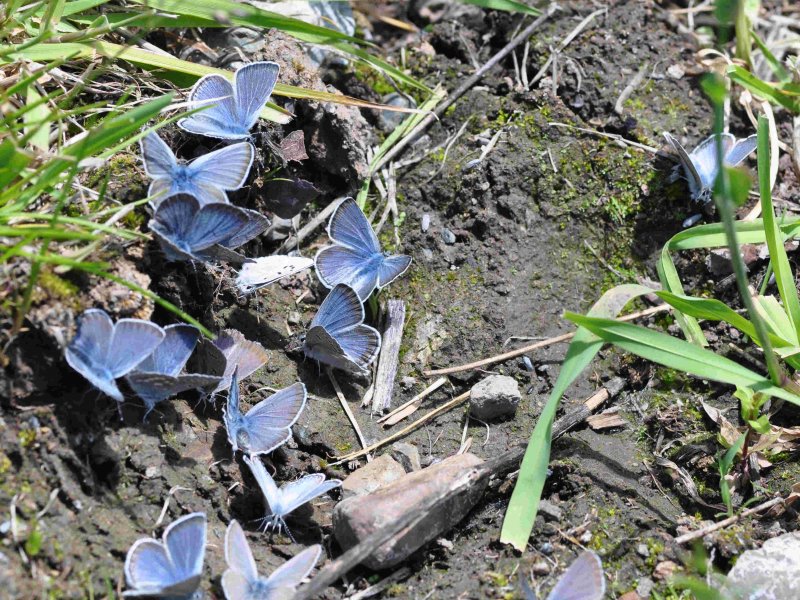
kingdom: Animalia
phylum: Arthropoda
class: Insecta
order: Lepidoptera
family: Lycaenidae
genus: Icaricia
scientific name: Icaricia icarioides
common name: Boisduval's Blue
